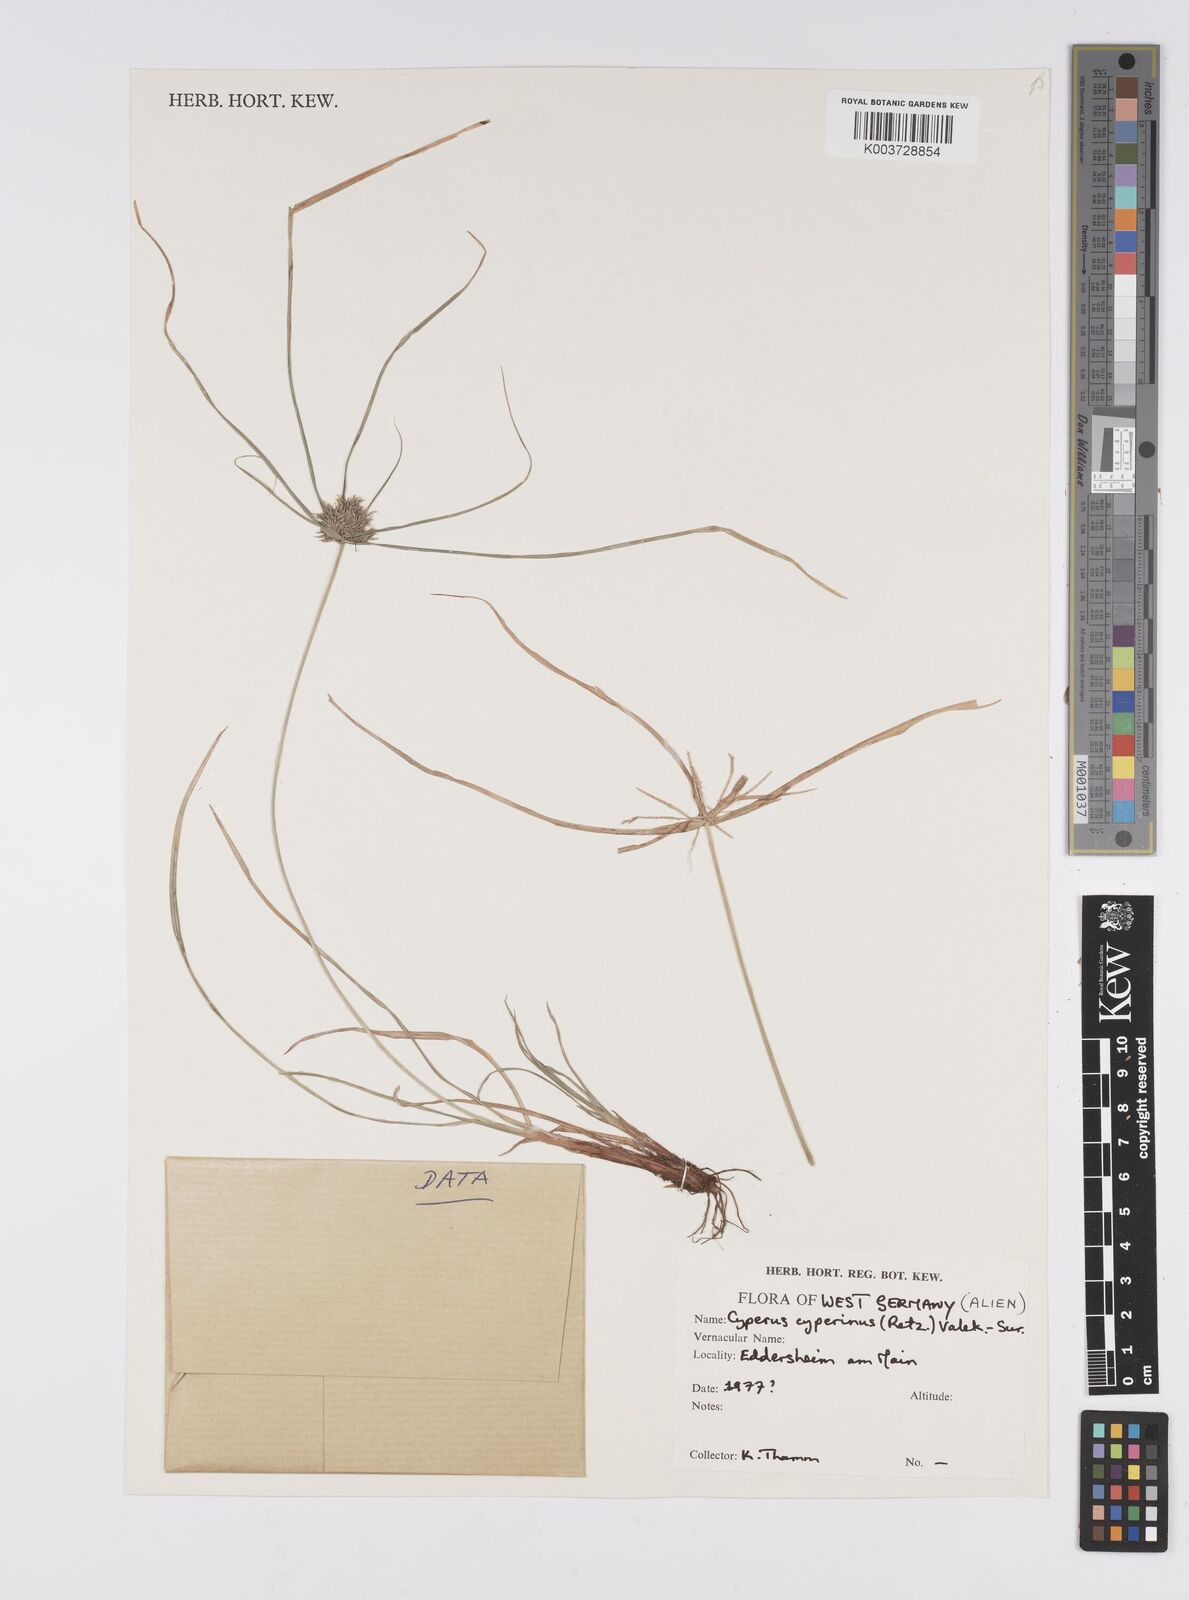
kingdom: Plantae
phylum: Tracheophyta
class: Liliopsida
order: Poales
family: Cyperaceae
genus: Cyperus
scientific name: Cyperus cyperinus
